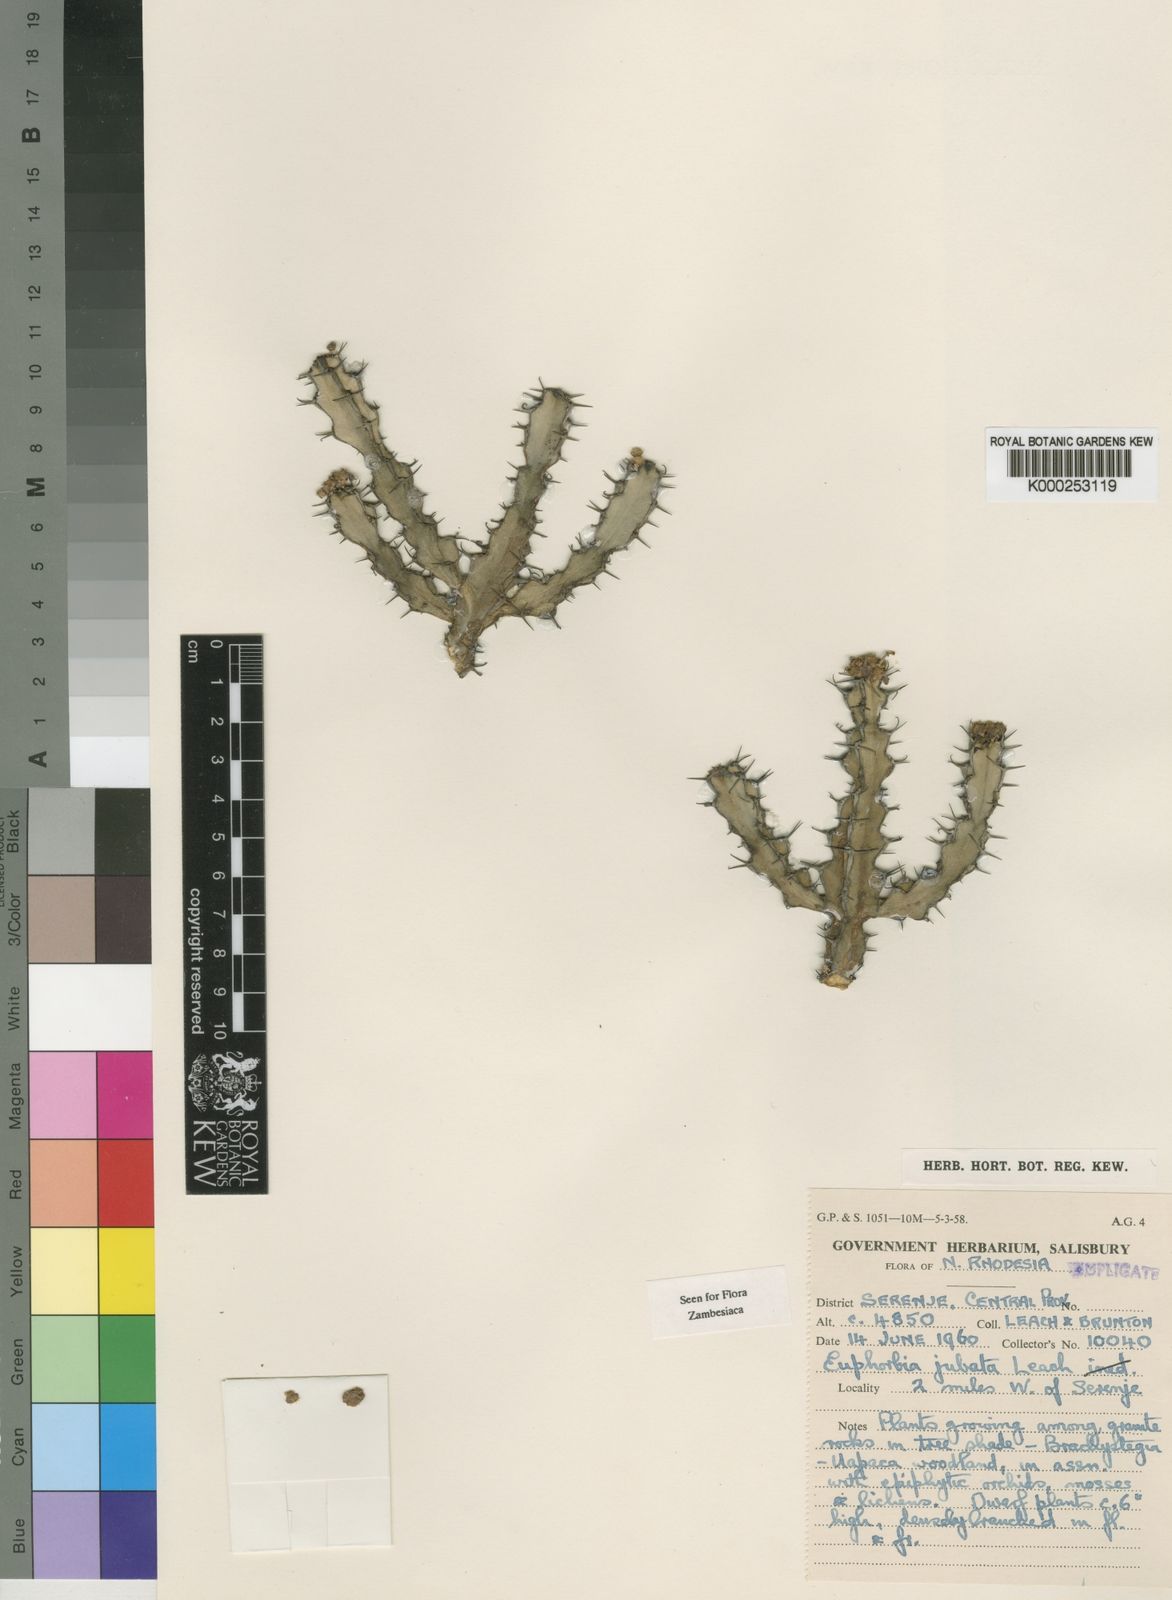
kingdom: Plantae
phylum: Tracheophyta
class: Magnoliopsida
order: Malpighiales
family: Euphorbiaceae
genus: Euphorbia
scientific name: Euphorbia jubata
